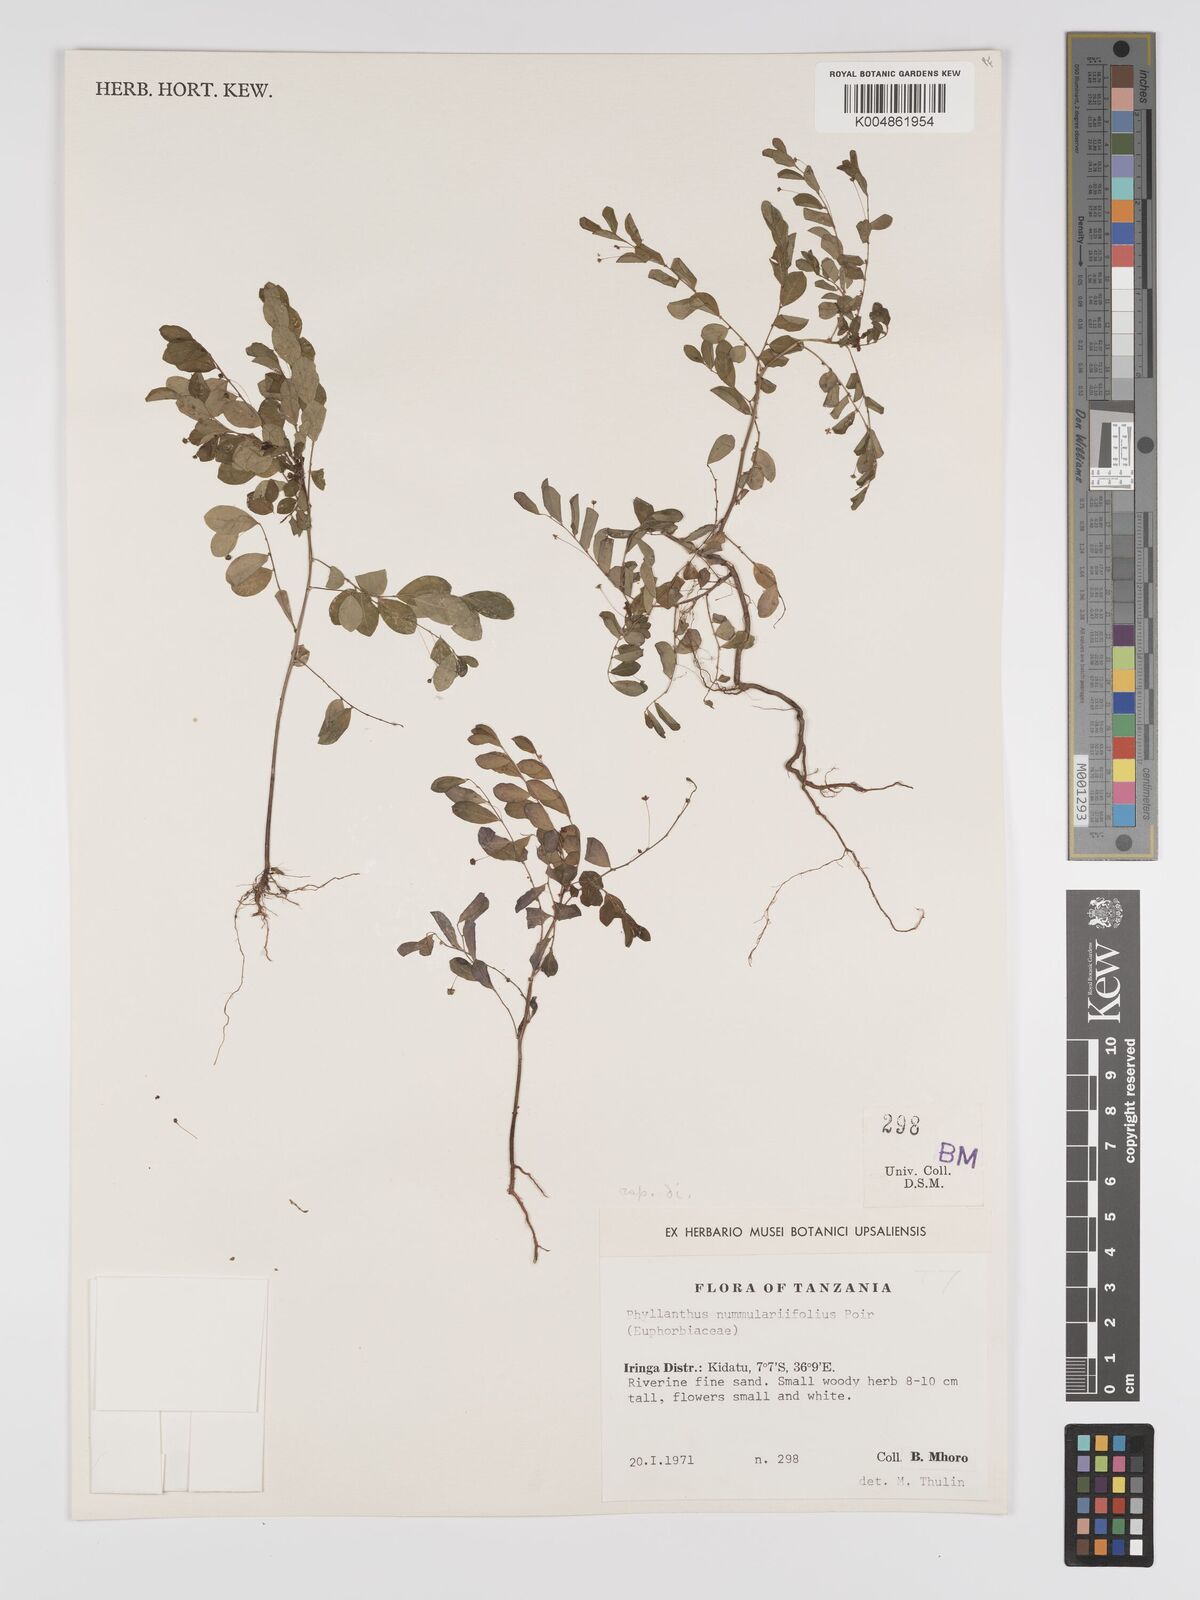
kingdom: Plantae
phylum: Tracheophyta
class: Magnoliopsida
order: Malpighiales
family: Phyllanthaceae
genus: Phyllanthus
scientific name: Phyllanthus nummulariifolius
